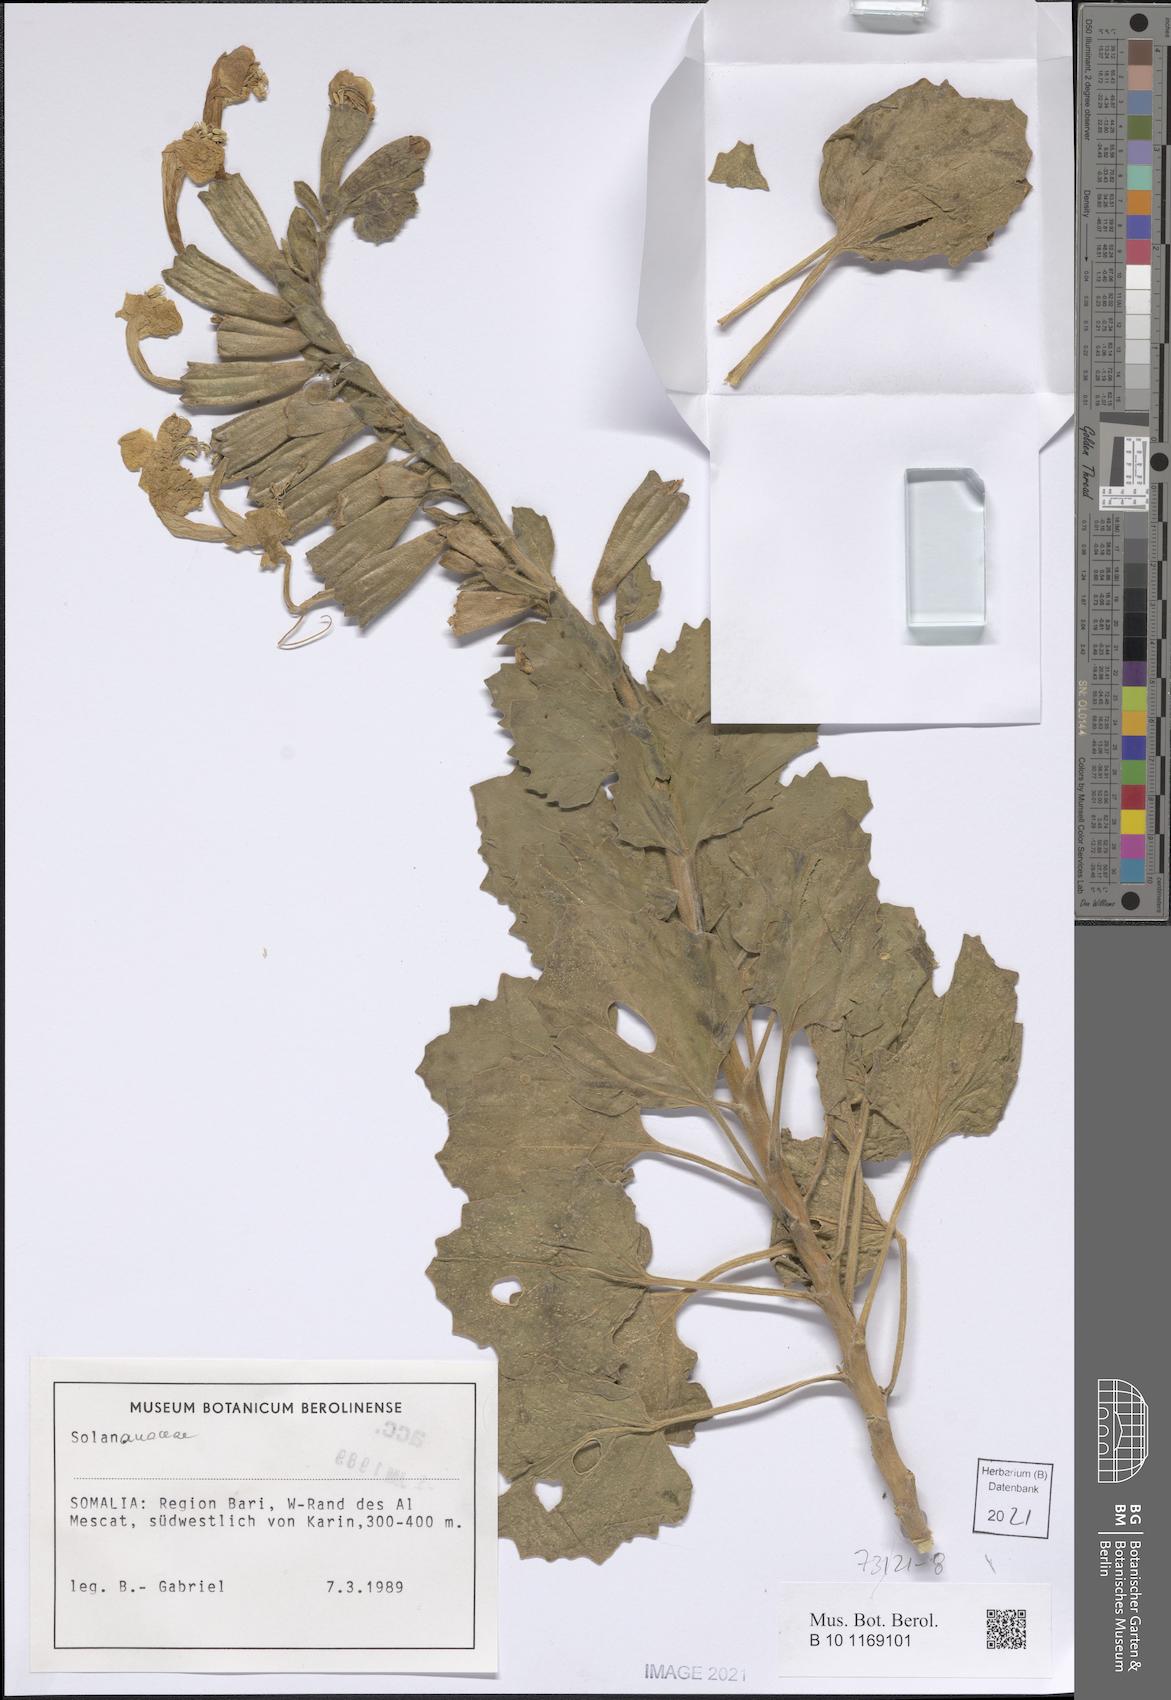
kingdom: Plantae
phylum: Tracheophyta
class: Magnoliopsida
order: Solanales
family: Solanaceae
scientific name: Solanaceae
